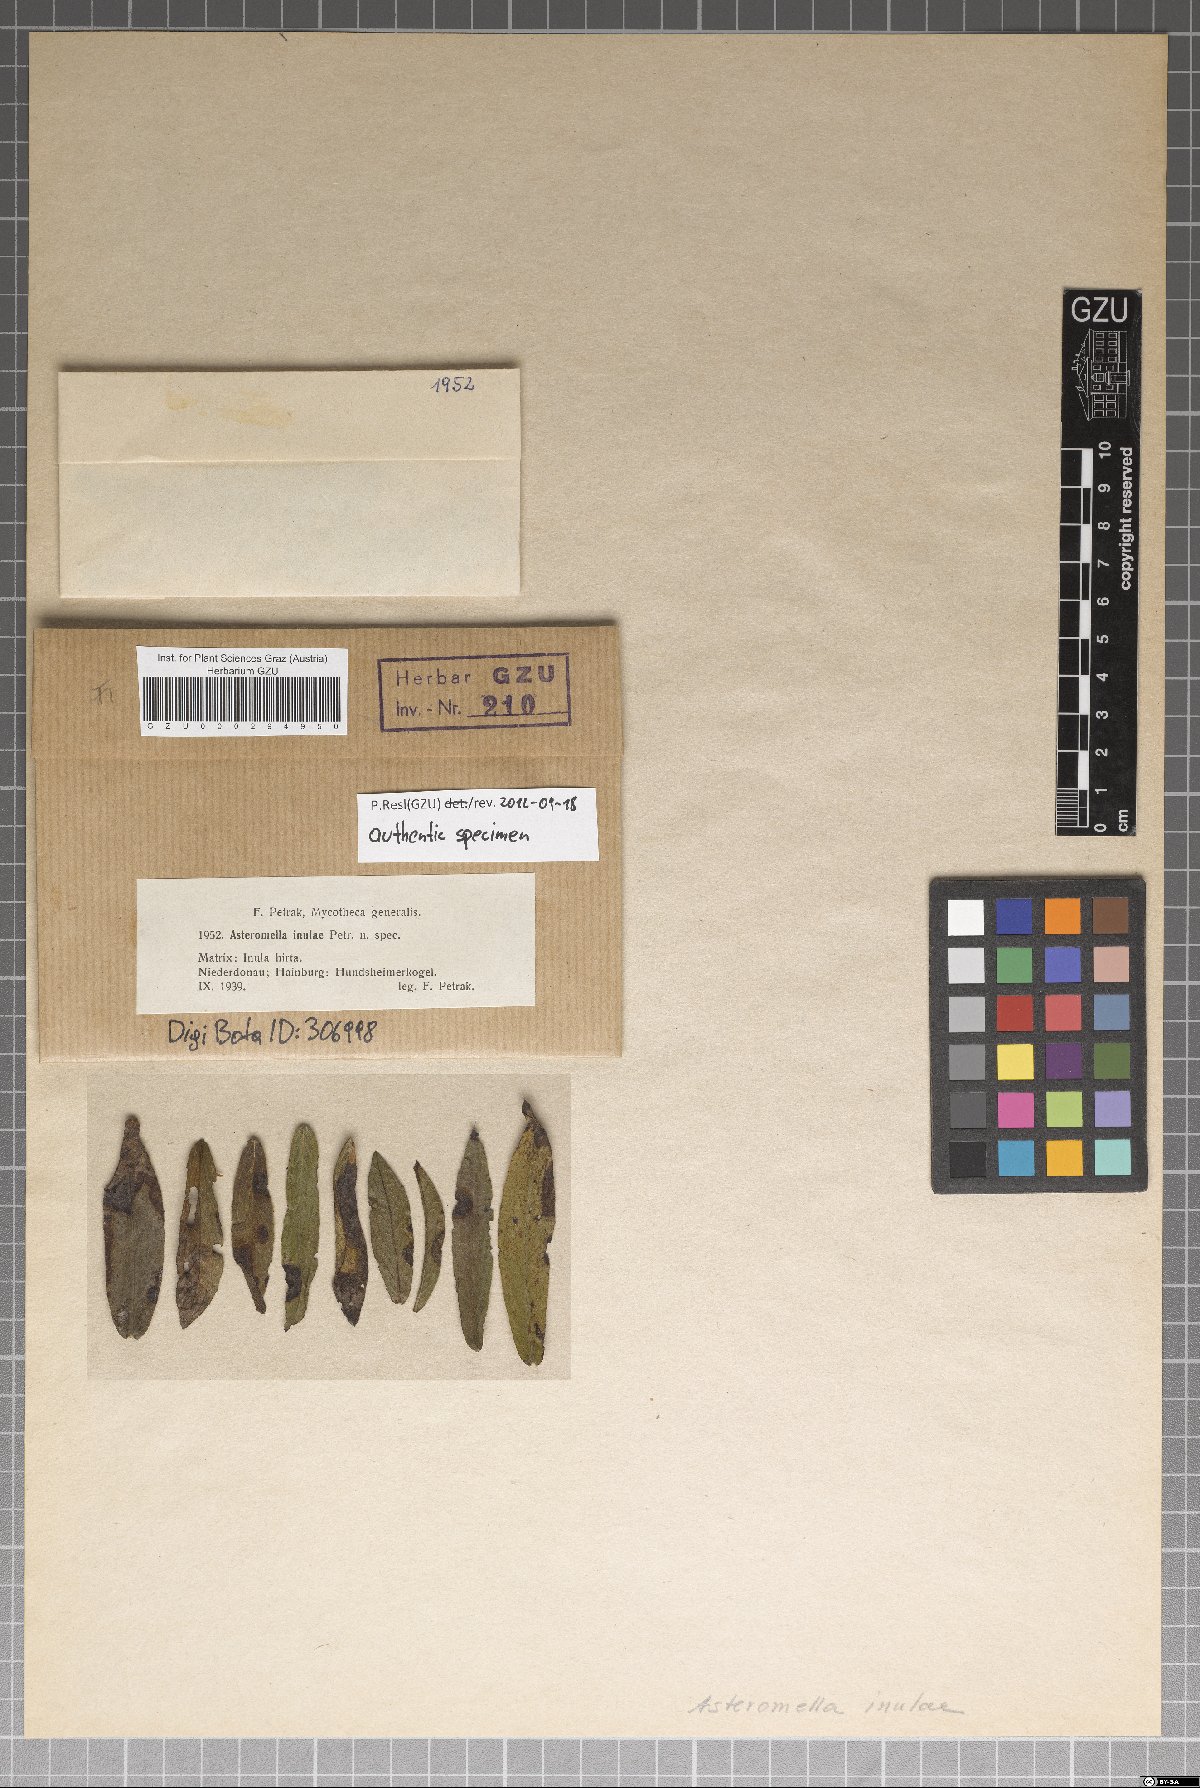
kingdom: Fungi
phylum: Ascomycota
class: Dothideomycetes
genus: Asteromella
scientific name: Asteromella inulae
